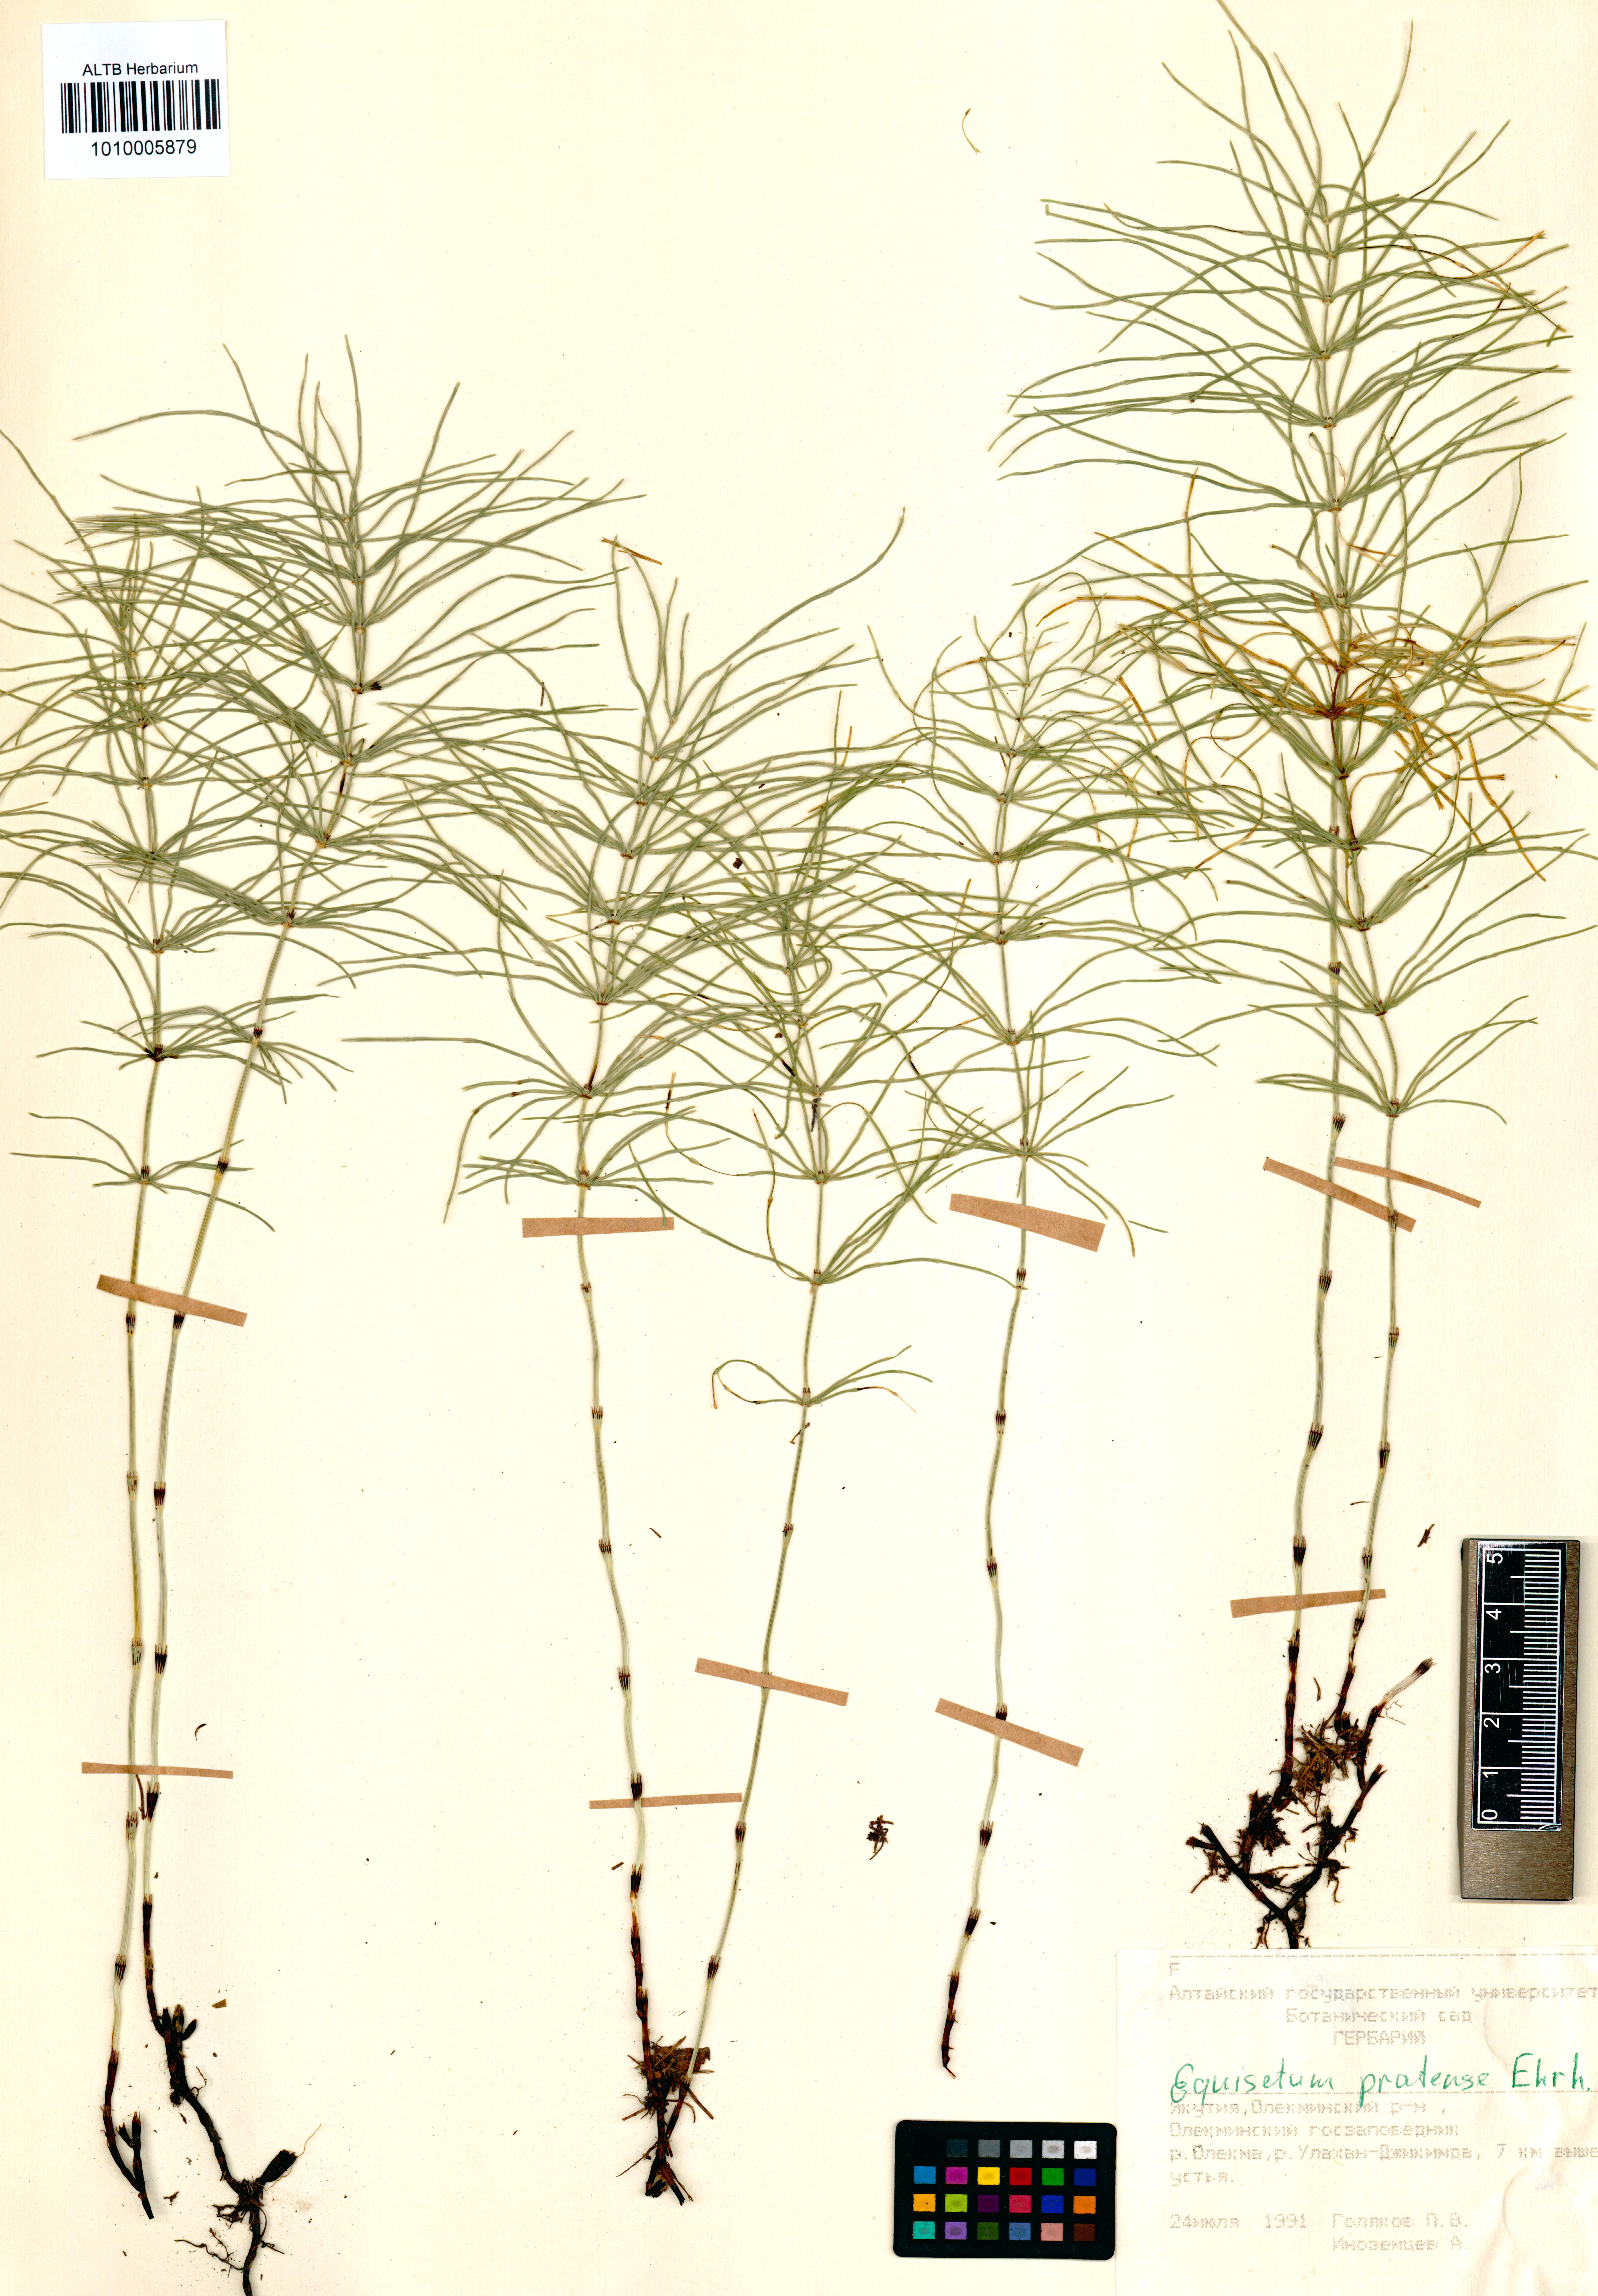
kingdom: Plantae
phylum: Tracheophyta
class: Polypodiopsida
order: Equisetales
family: Equisetaceae
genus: Equisetum
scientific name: Equisetum pratense
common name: Meadow horsetail
